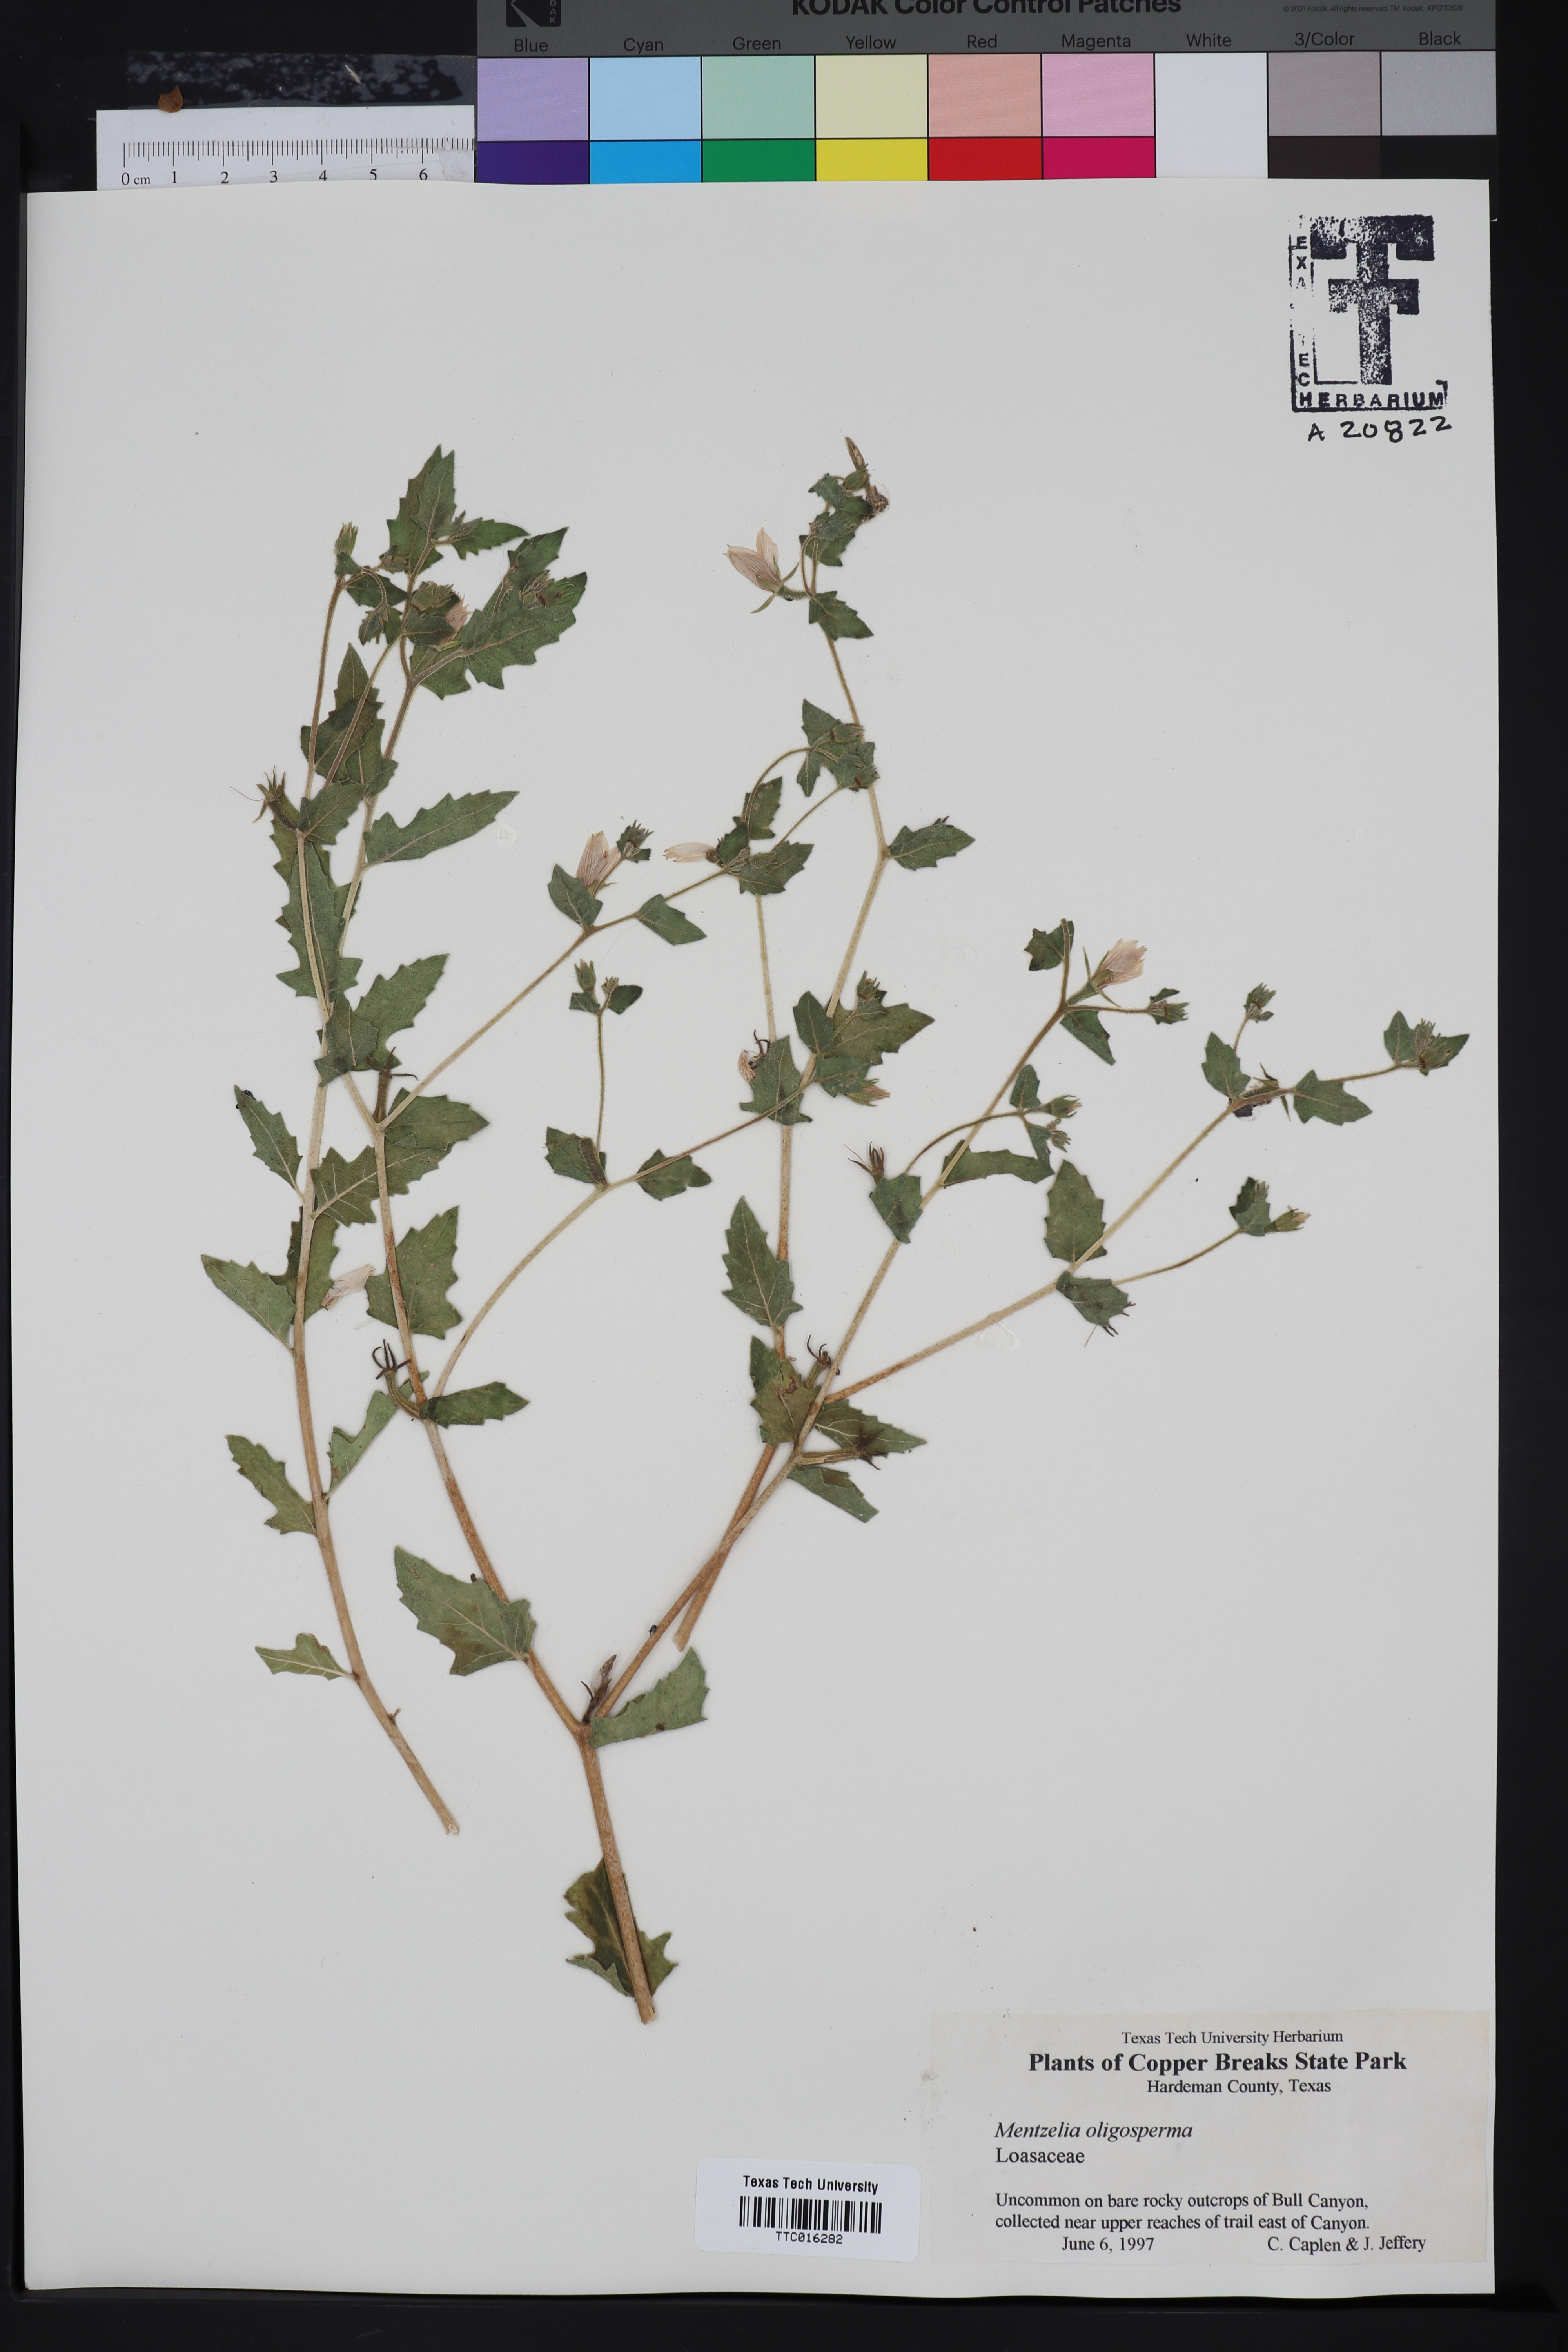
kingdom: Plantae
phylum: Tracheophyta
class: Magnoliopsida
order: Cornales
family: Loasaceae
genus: Mentzelia
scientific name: Mentzelia oligosperma
